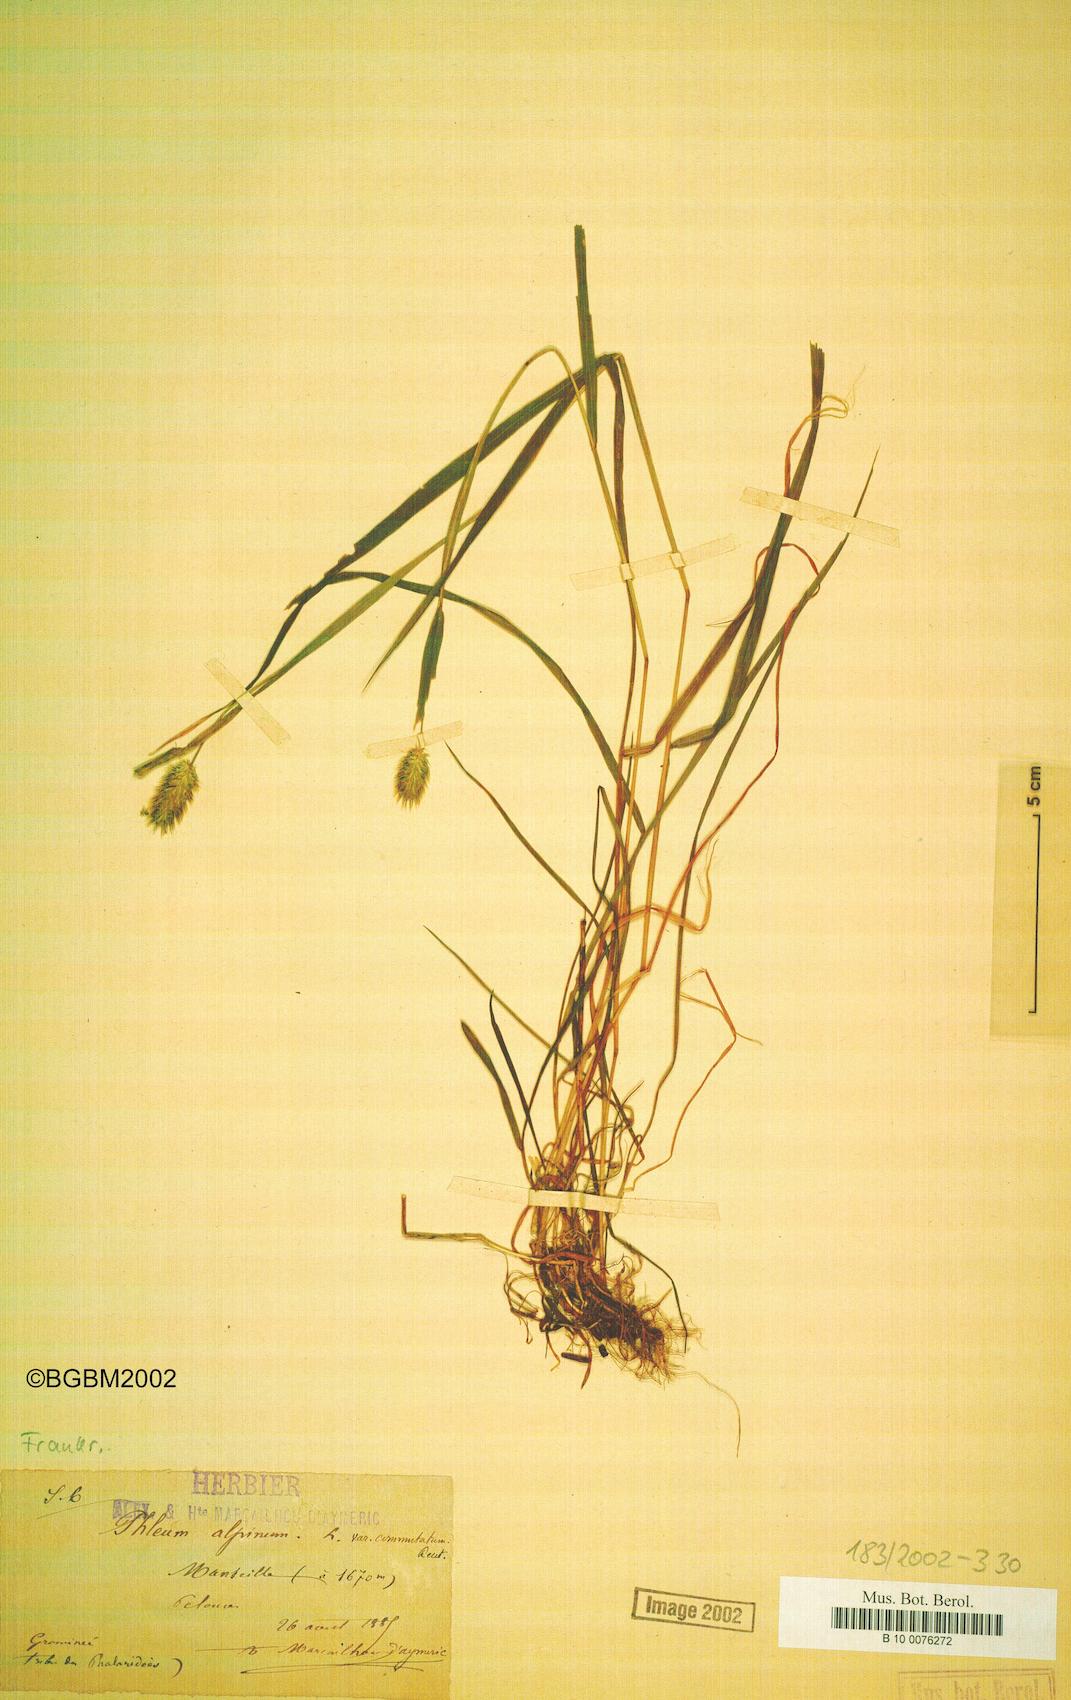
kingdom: Plantae
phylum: Tracheophyta
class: Liliopsida
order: Poales
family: Poaceae
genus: Phleum
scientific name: Phleum alpinum
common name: Alpine cat's-tail
